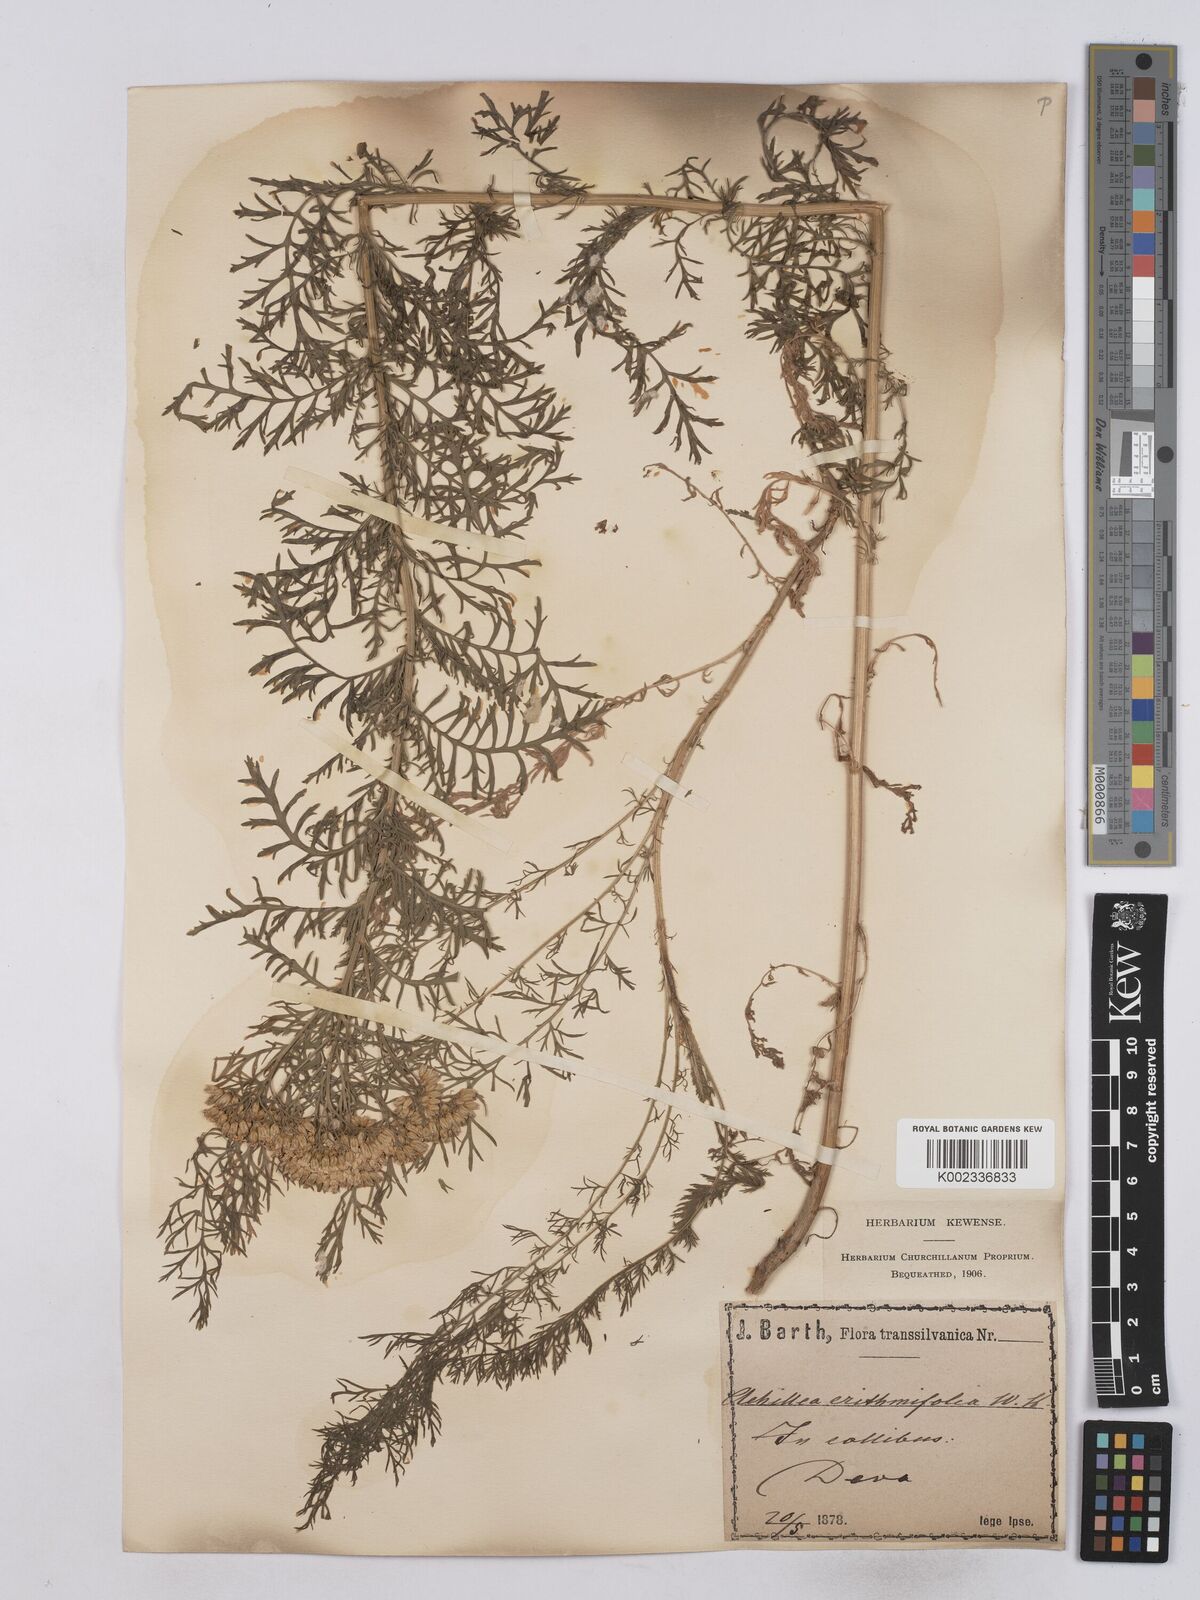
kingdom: Plantae
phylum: Tracheophyta
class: Magnoliopsida
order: Asterales
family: Asteraceae
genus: Achillea
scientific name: Achillea crithmifolia
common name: Yarrow
